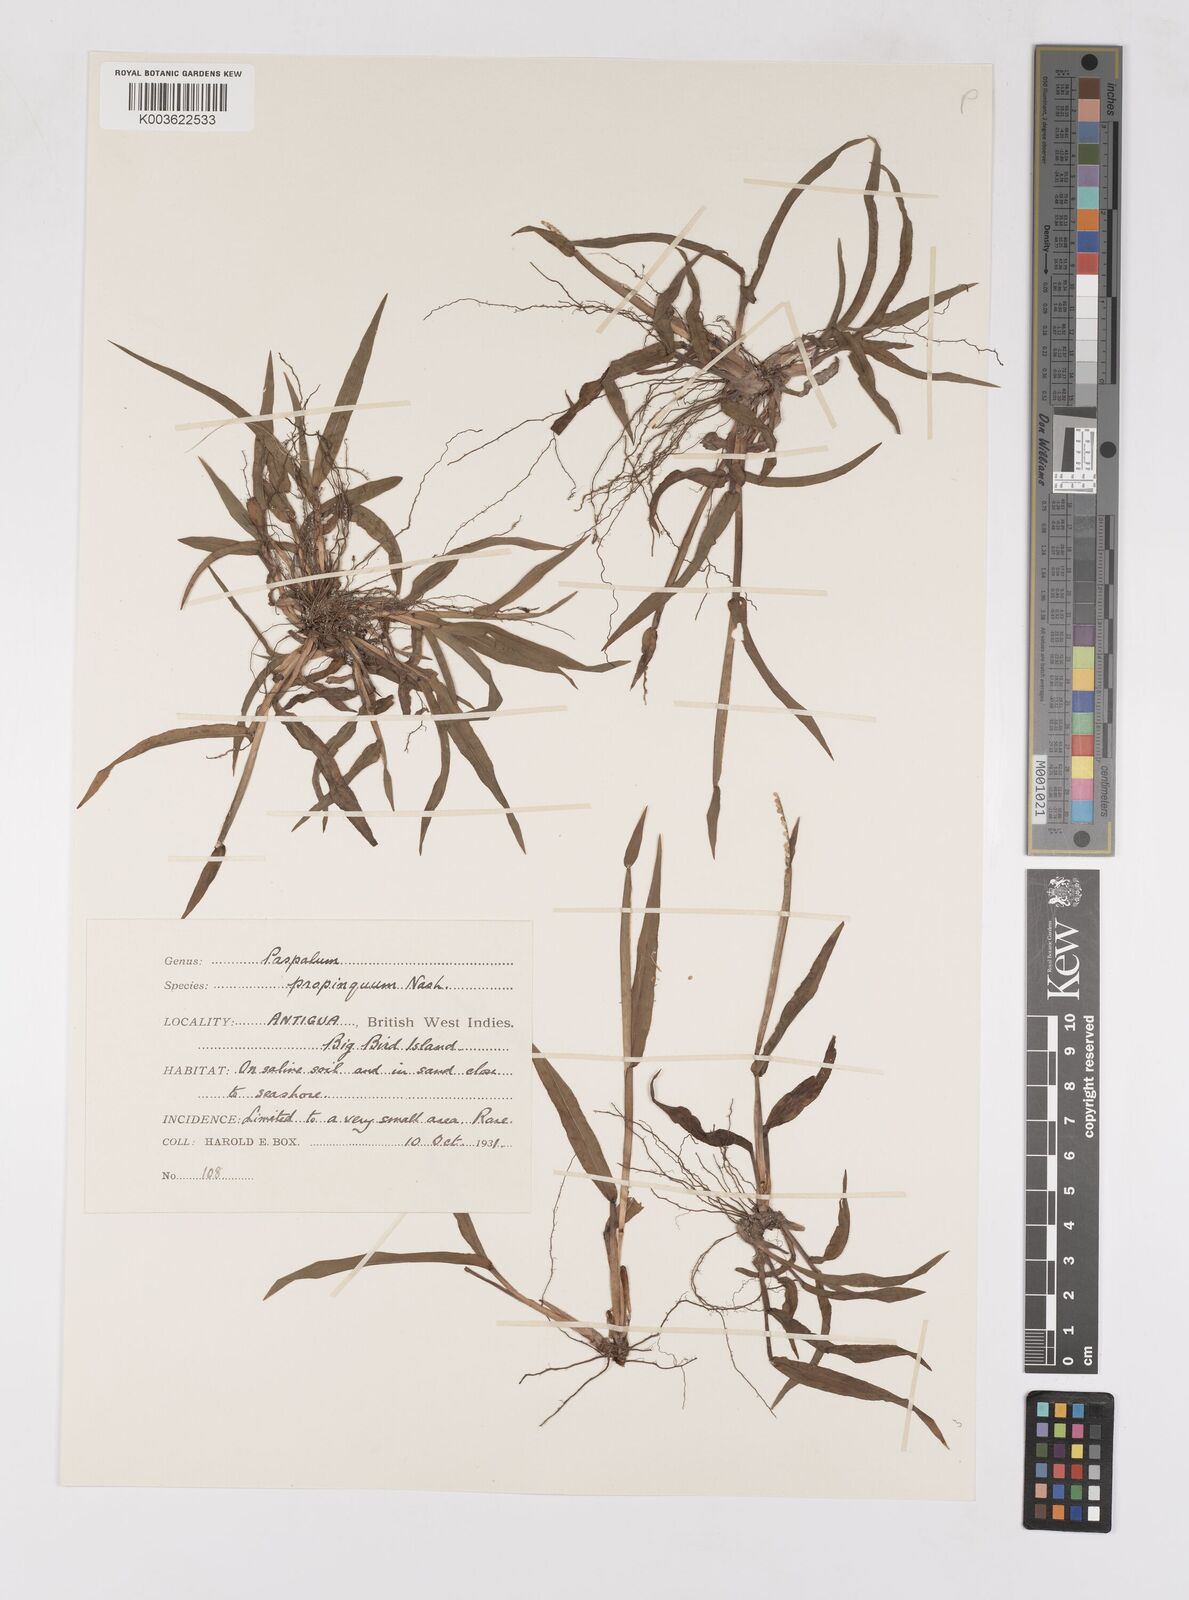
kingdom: Plantae
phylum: Tracheophyta
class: Liliopsida
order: Poales
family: Poaceae
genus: Paspalum
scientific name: Paspalum
